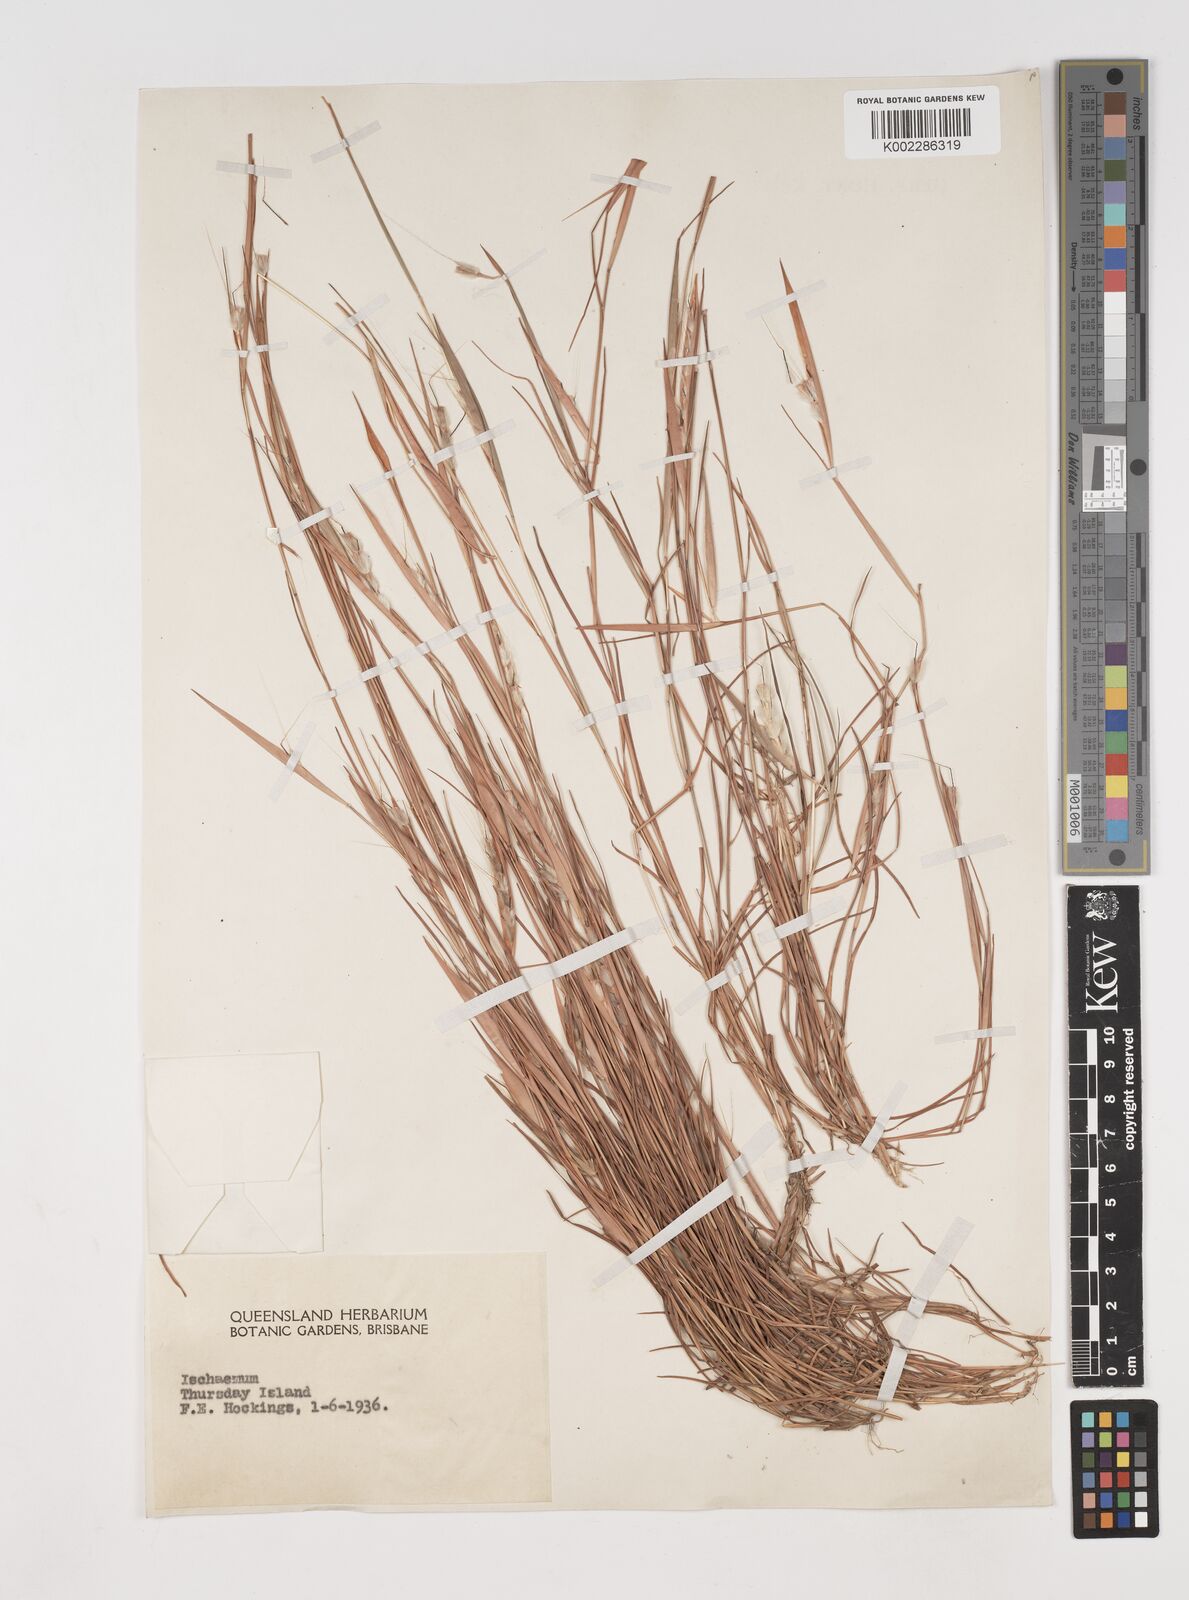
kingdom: Plantae
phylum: Tracheophyta
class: Liliopsida
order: Poales
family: Poaceae
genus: Schizachyrium
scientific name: Schizachyrium
